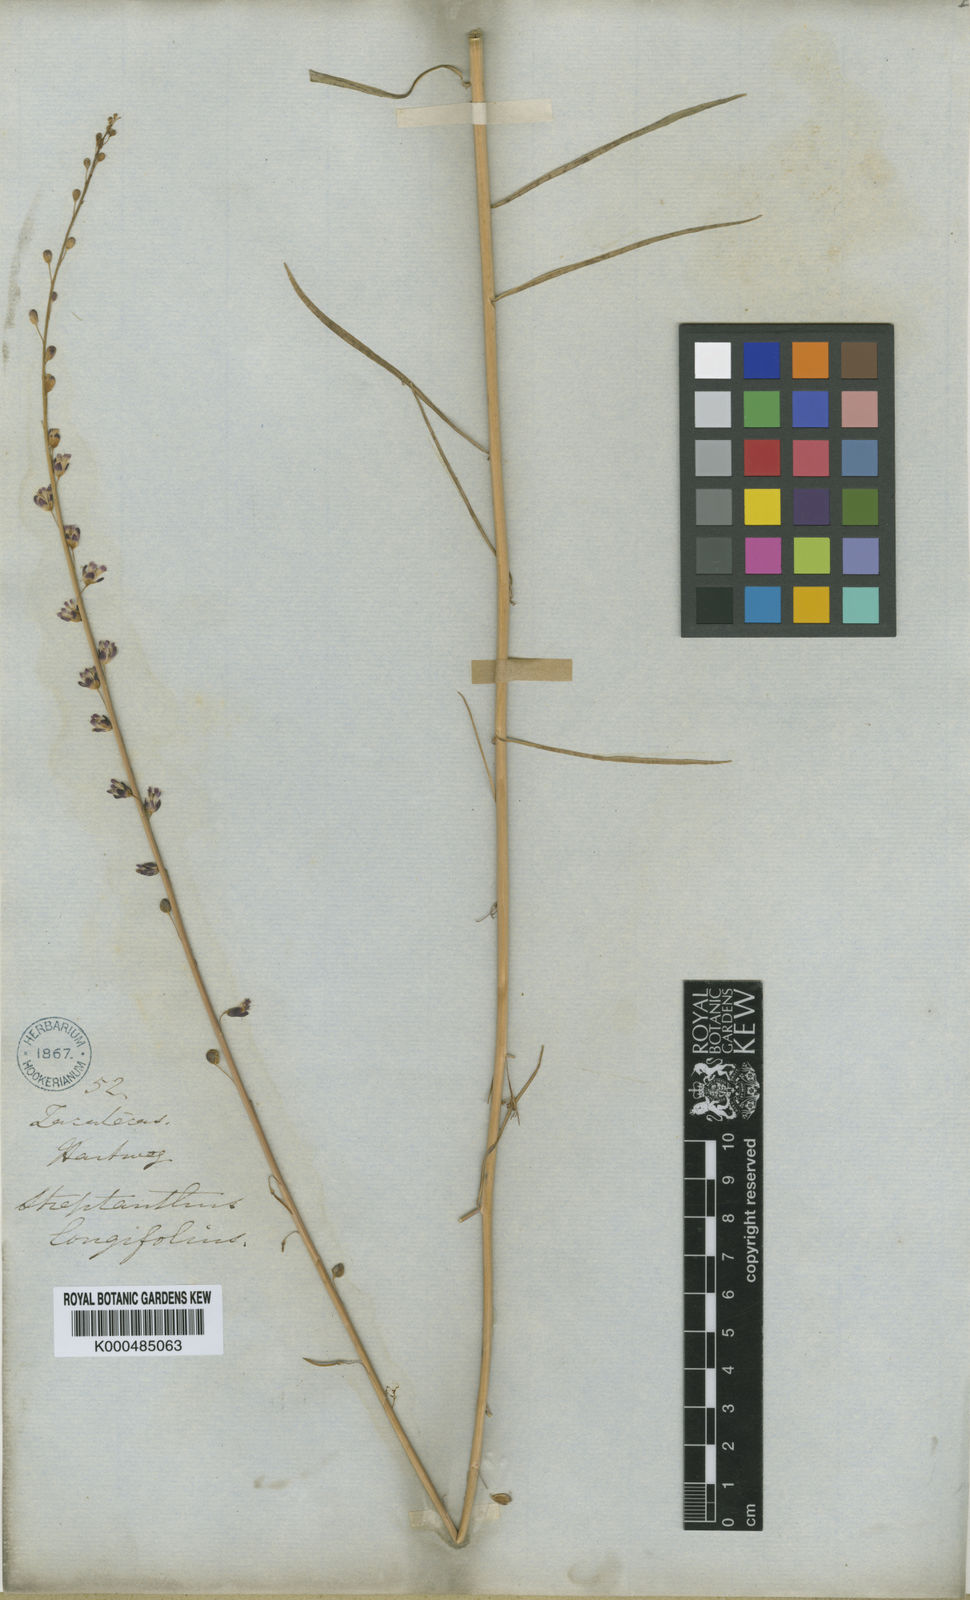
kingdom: Plantae
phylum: Tracheophyta
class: Magnoliopsida
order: Brassicales
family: Brassicaceae
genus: Pennellia
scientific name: Pennellia longifolia
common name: Longleaf mock thelypody
